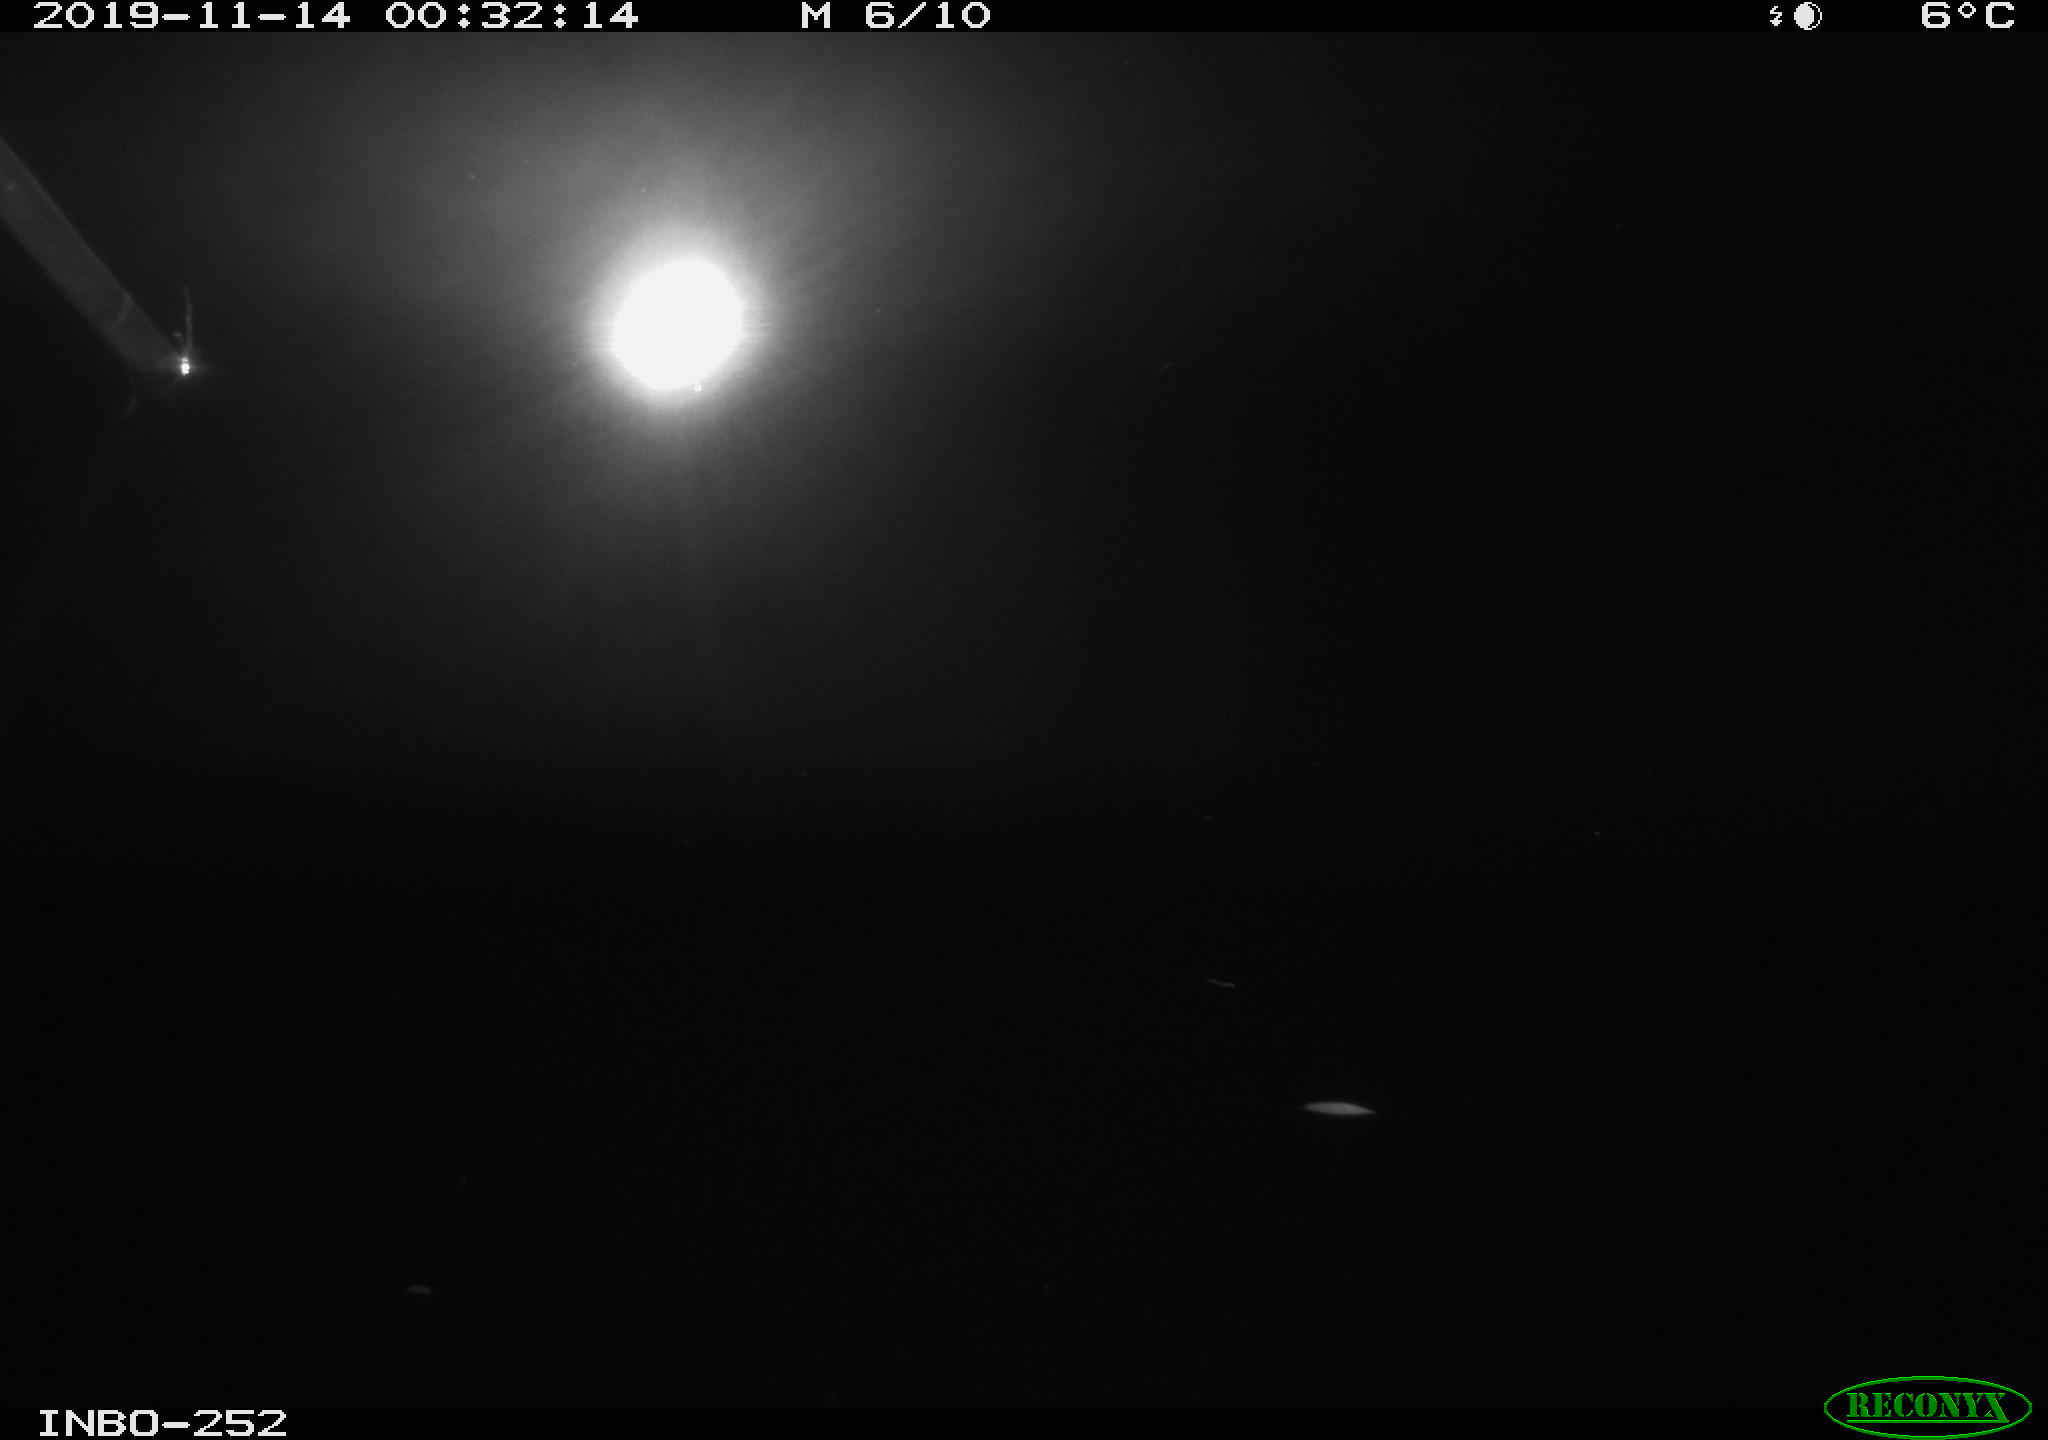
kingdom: Animalia
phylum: Chordata
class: Aves
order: Anseriformes
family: Anatidae
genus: Anas
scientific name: Anas platyrhynchos
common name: Mallard
